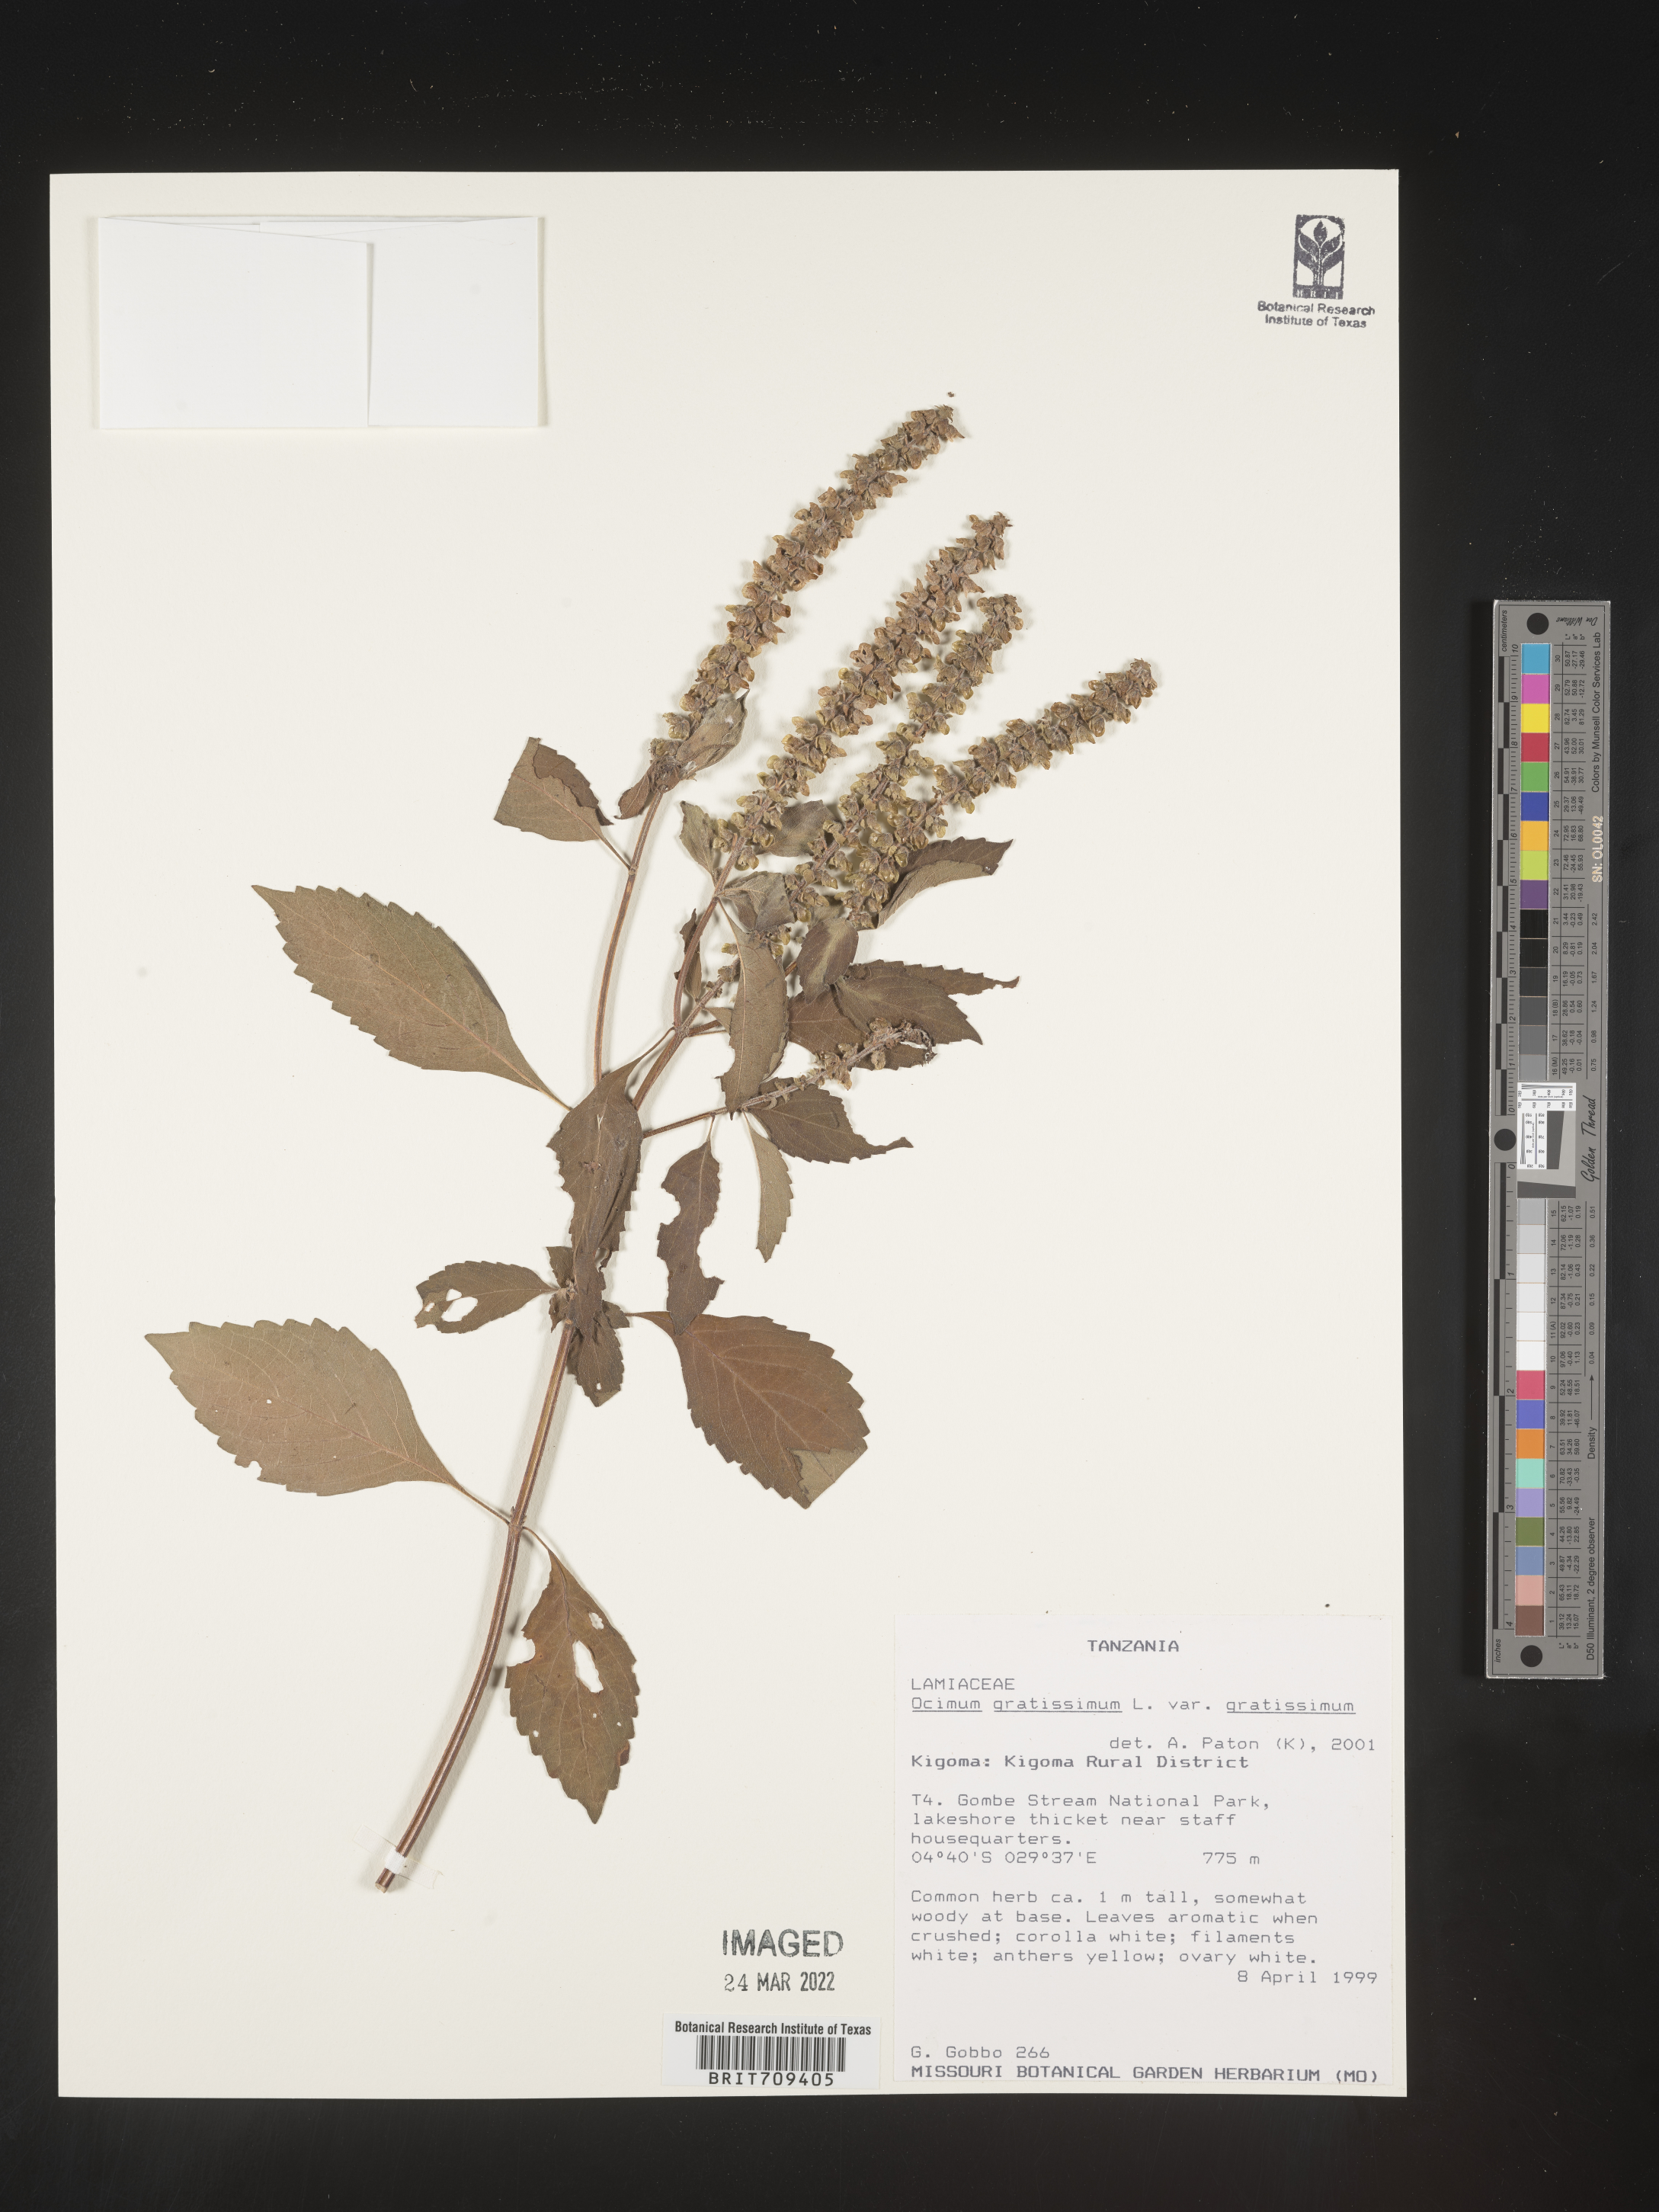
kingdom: Plantae
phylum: Tracheophyta
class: Magnoliopsida
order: Lamiales
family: Lamiaceae
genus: Ocimum
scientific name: Ocimum
